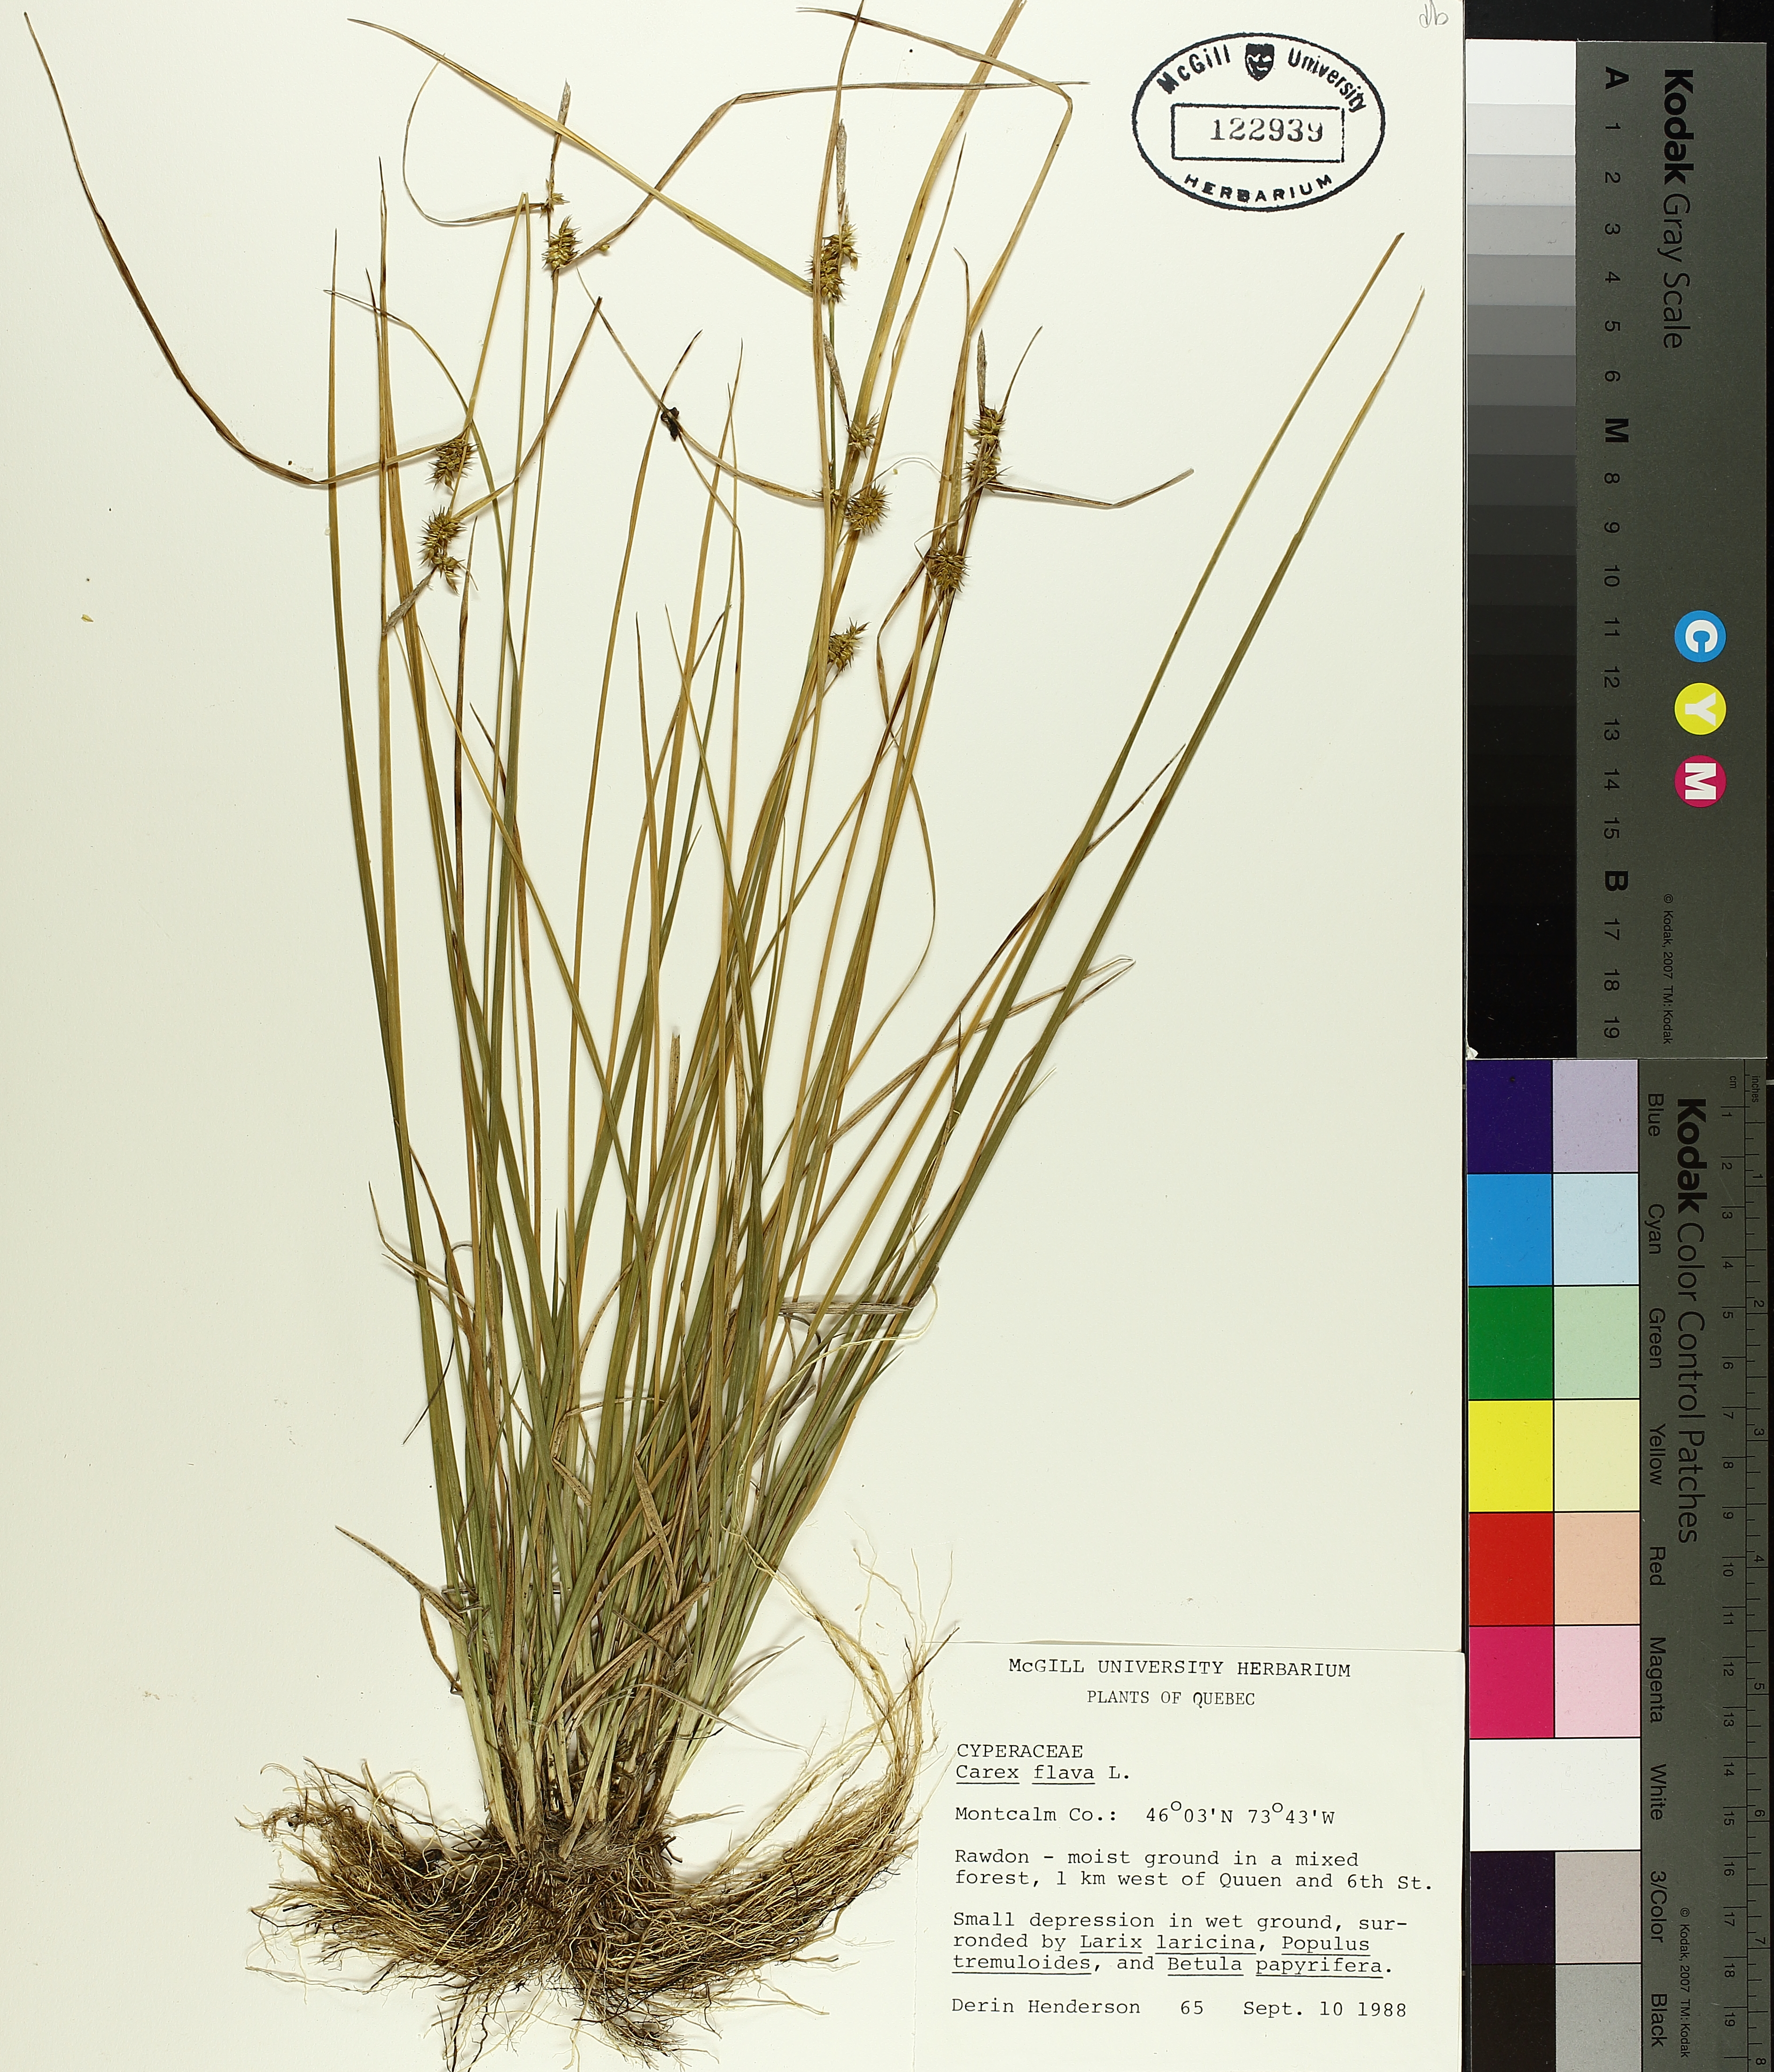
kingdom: Plantae
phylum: Tracheophyta
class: Liliopsida
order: Poales
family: Cyperaceae
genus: Carex
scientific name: Carex flava
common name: Large yellow-sedge
